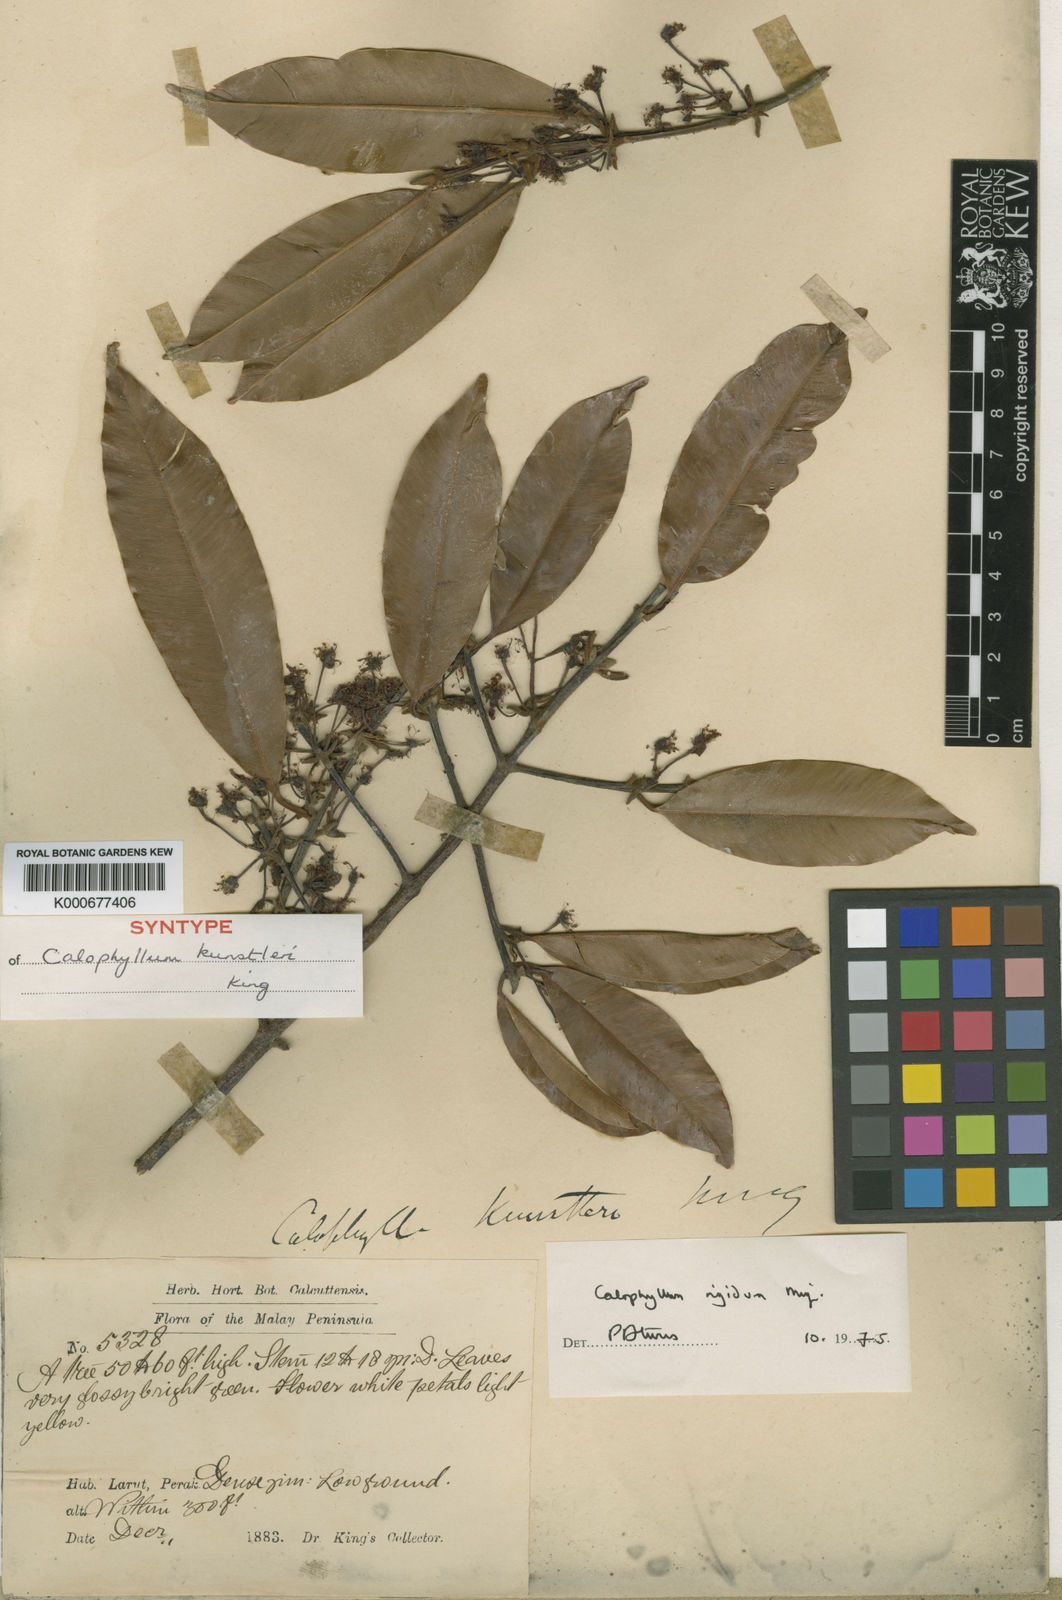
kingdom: Plantae
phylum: Tracheophyta
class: Magnoliopsida
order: Malpighiales
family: Calophyllaceae
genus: Calophyllum
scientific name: Calophyllum rigidum
